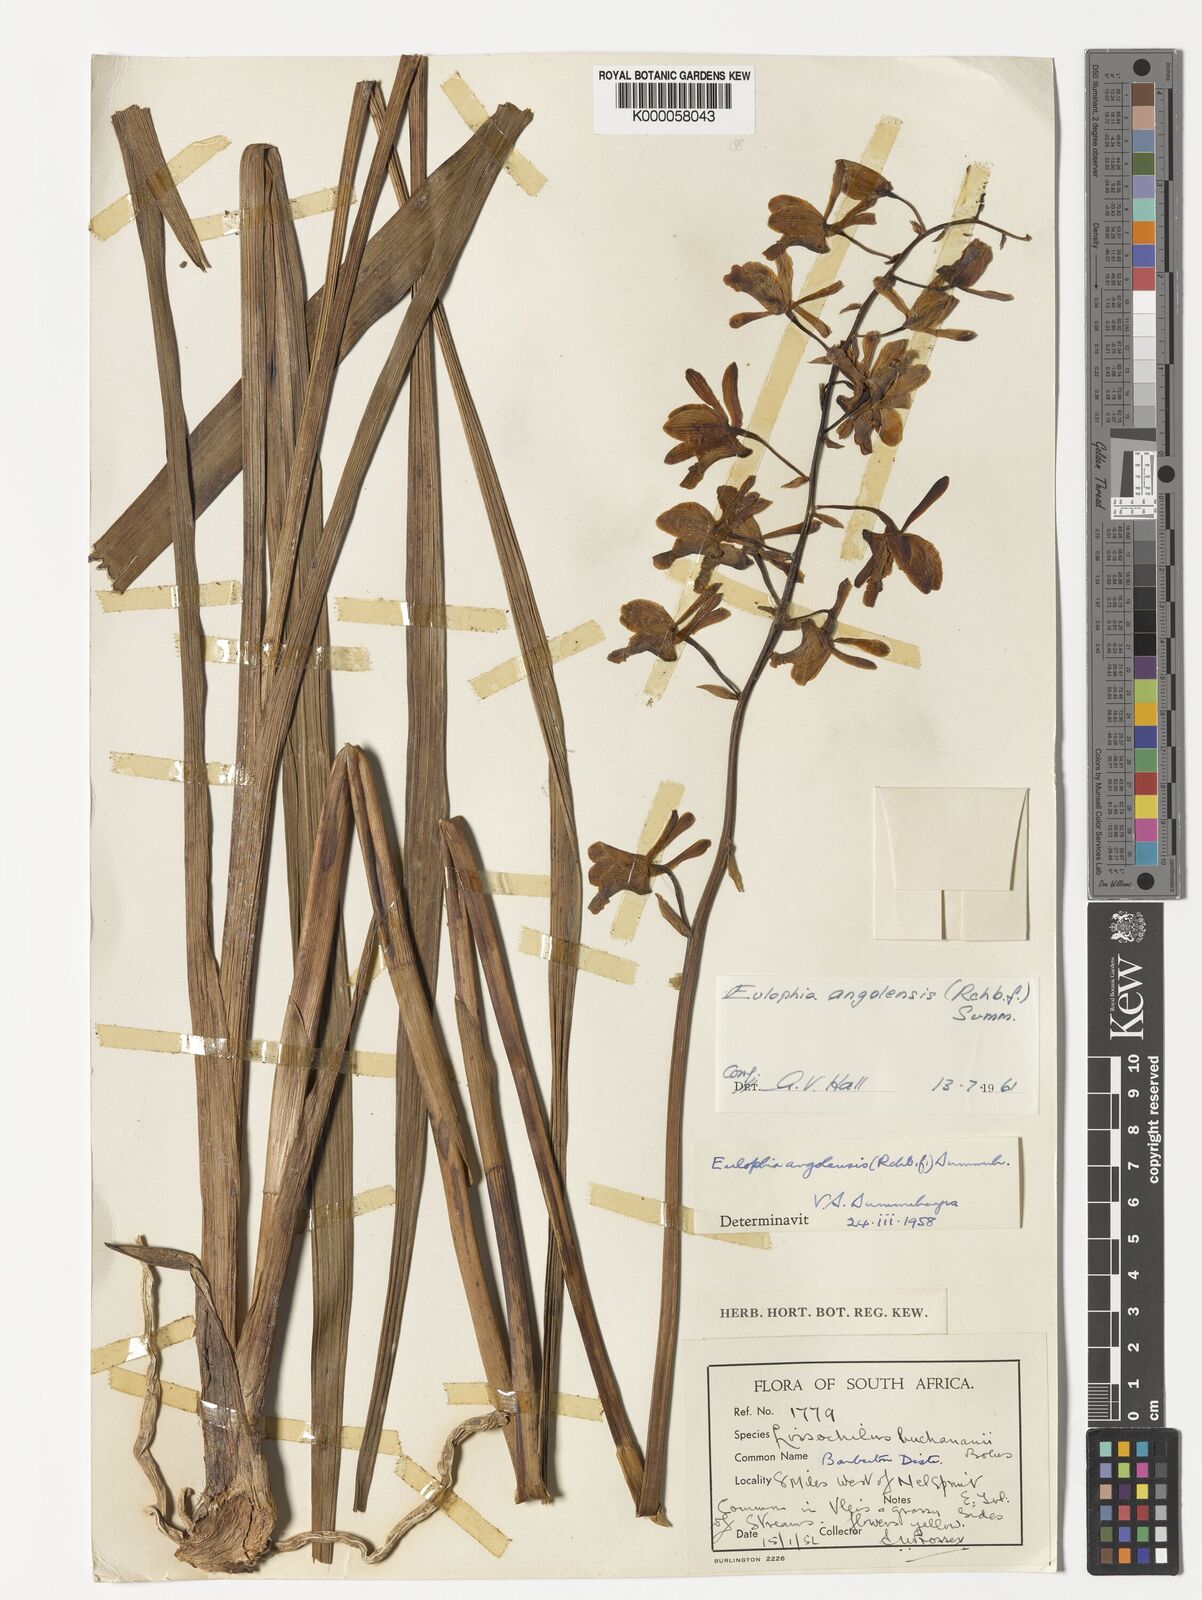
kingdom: Plantae
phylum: Tracheophyta
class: Liliopsida
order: Asparagales
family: Orchidaceae
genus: Eulophia
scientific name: Eulophia angolensis
